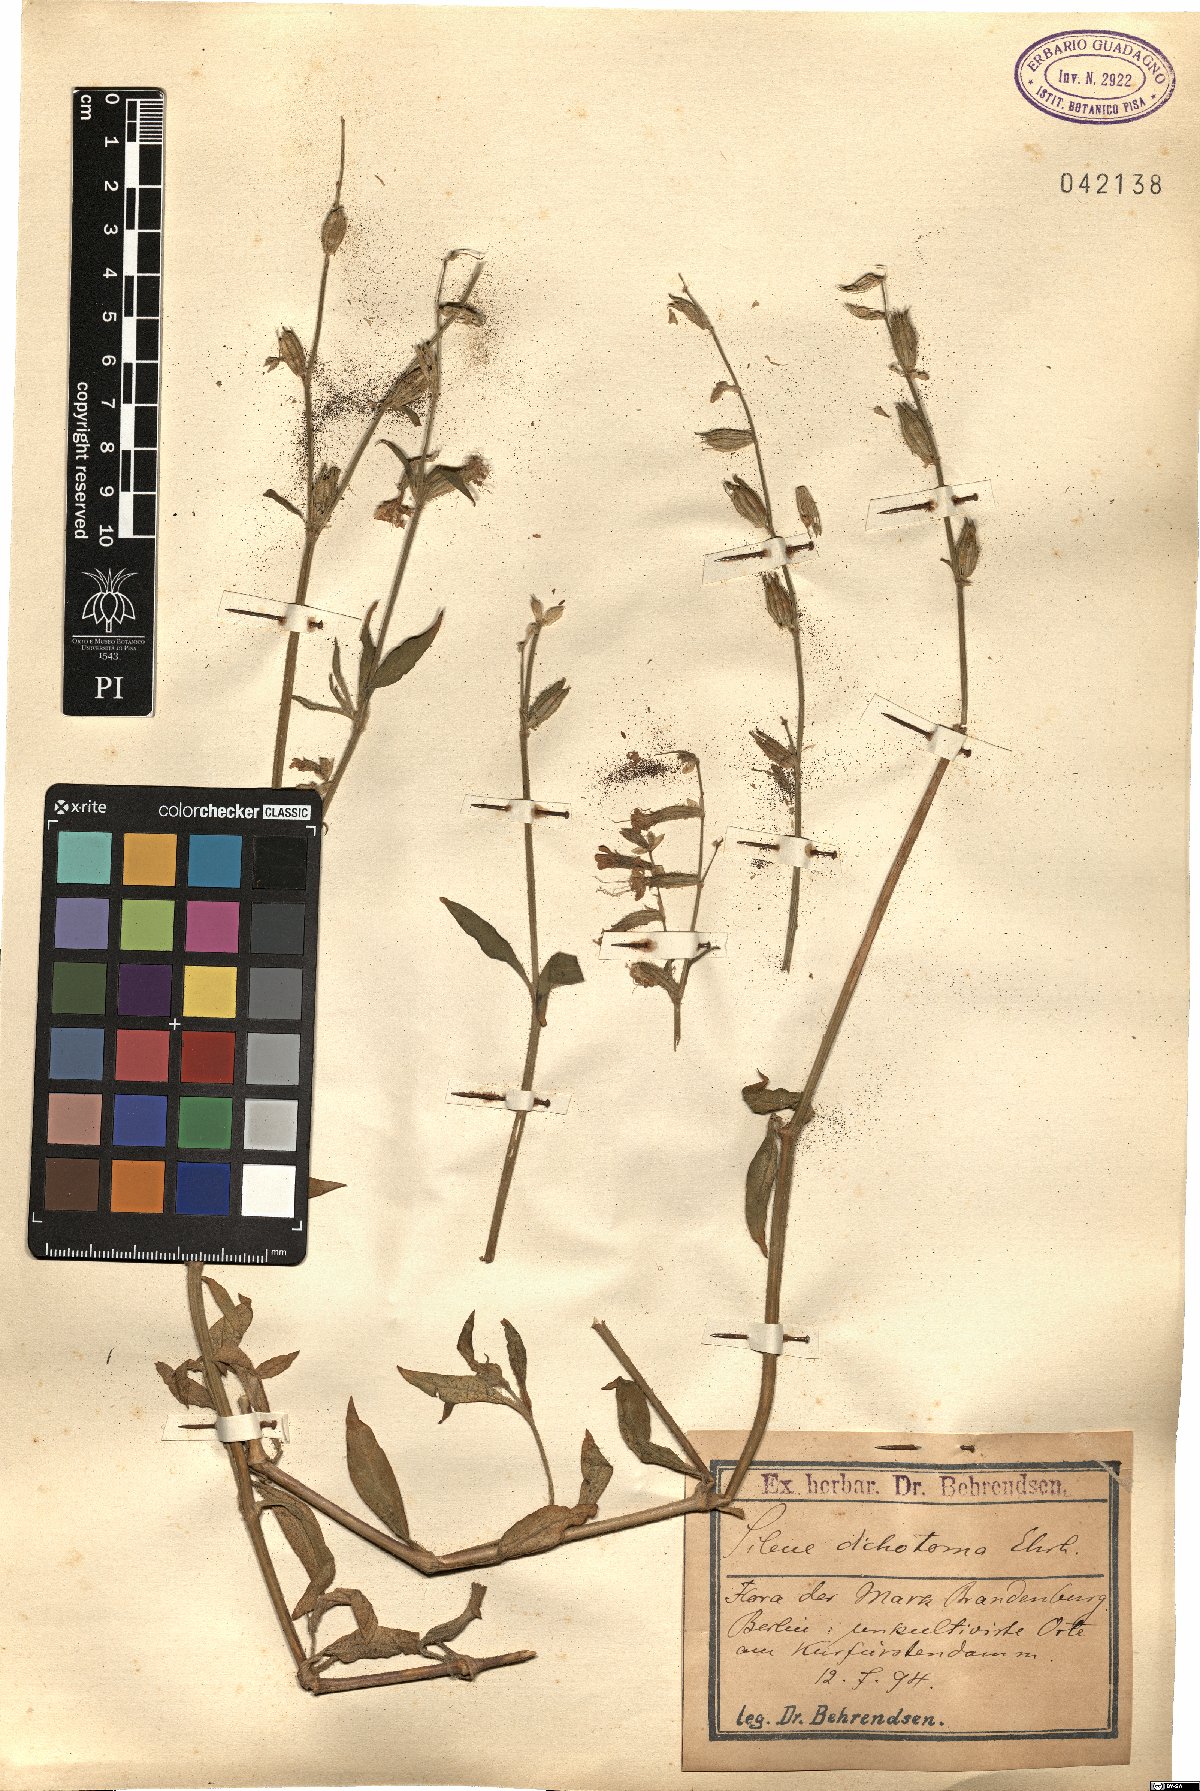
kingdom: Plantae
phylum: Tracheophyta
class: Magnoliopsida
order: Caryophyllales
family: Caryophyllaceae
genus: Silene
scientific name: Silene dichotoma
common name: Forked catchfly
